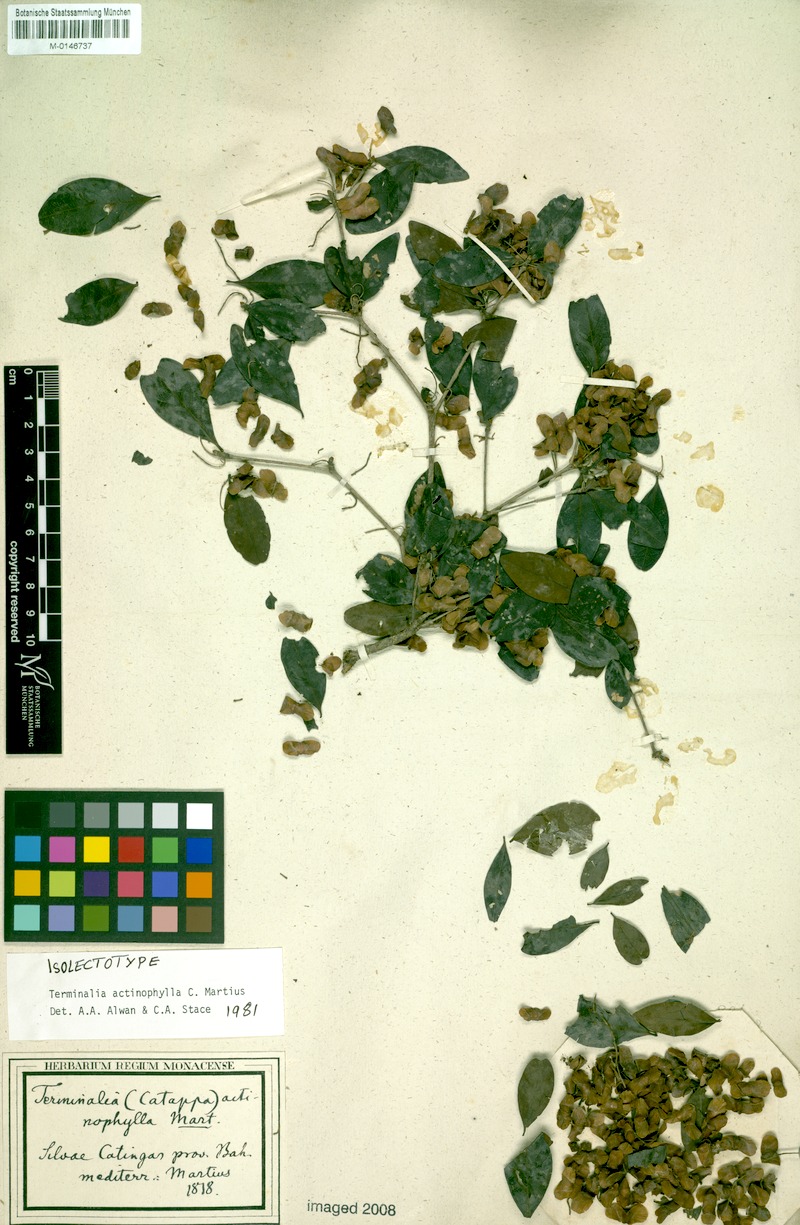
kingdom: Plantae
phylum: Tracheophyta
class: Magnoliopsida
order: Myrtales
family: Combretaceae
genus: Terminalia
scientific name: Terminalia actinophylla
